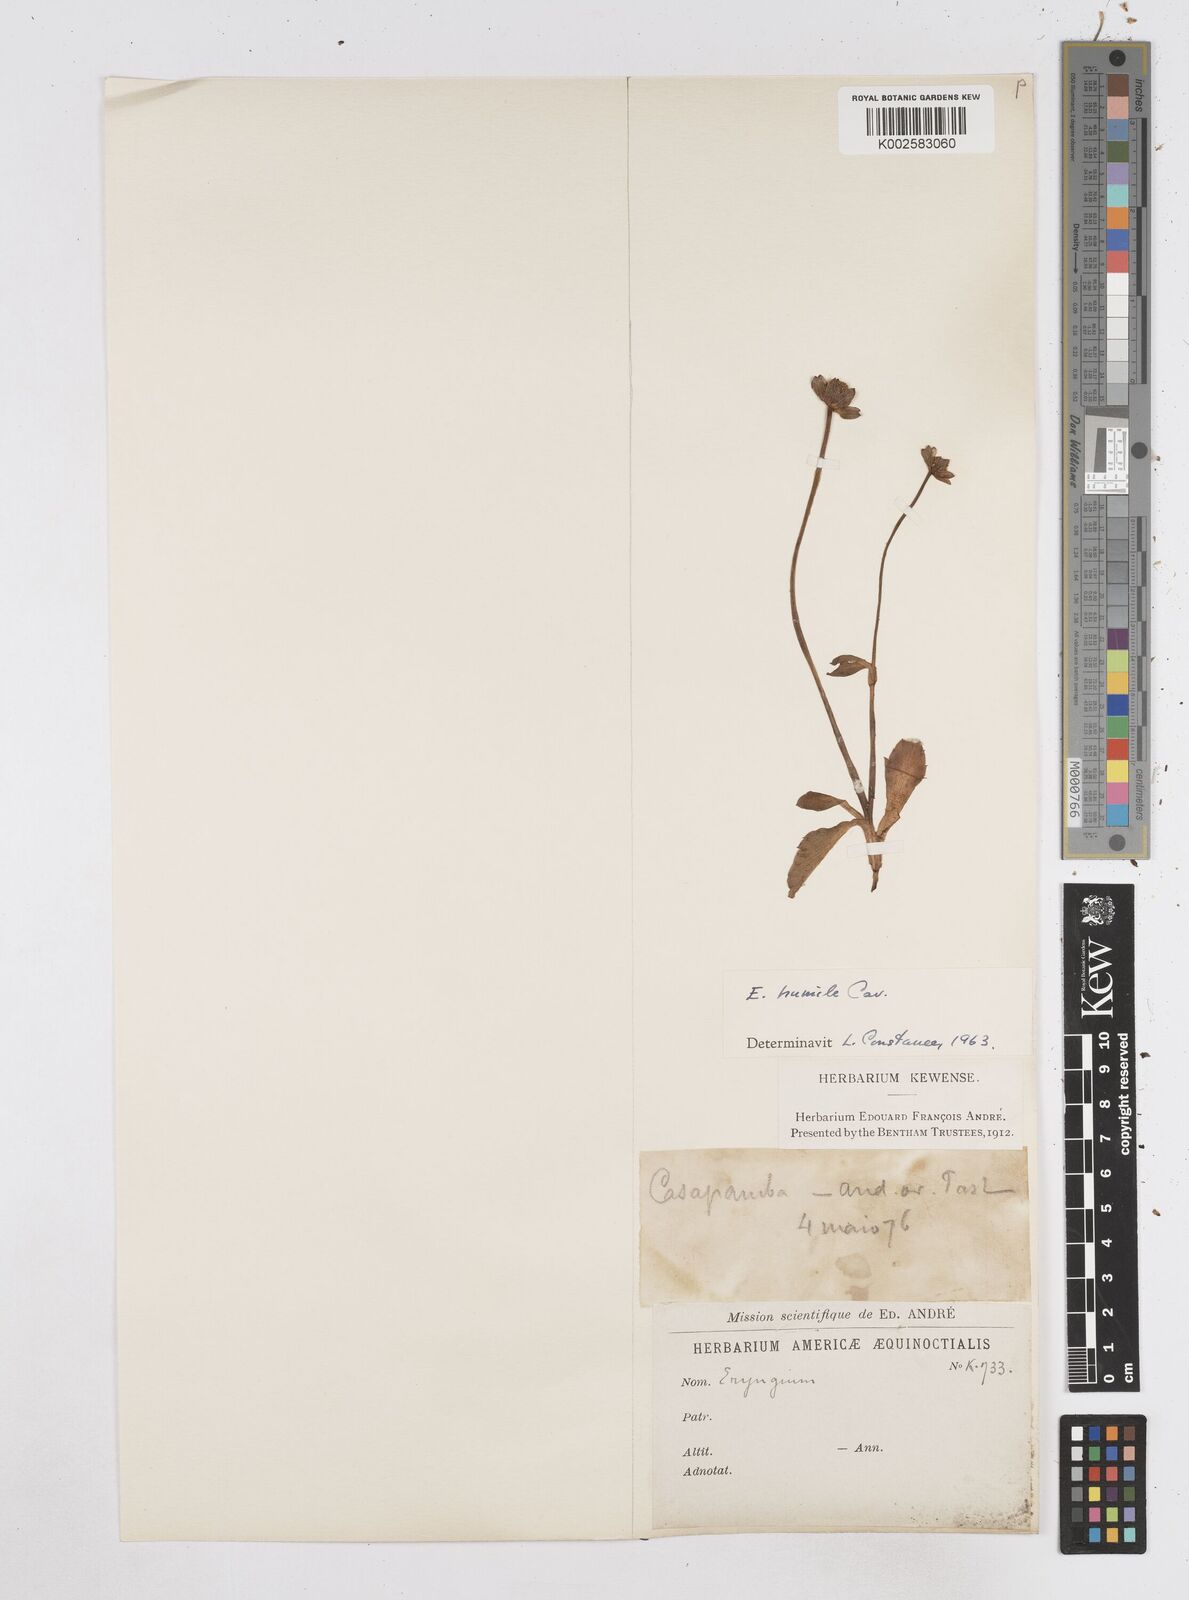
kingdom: Plantae
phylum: Tracheophyta
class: Magnoliopsida
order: Apiales
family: Apiaceae
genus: Eryngium
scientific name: Eryngium humile
